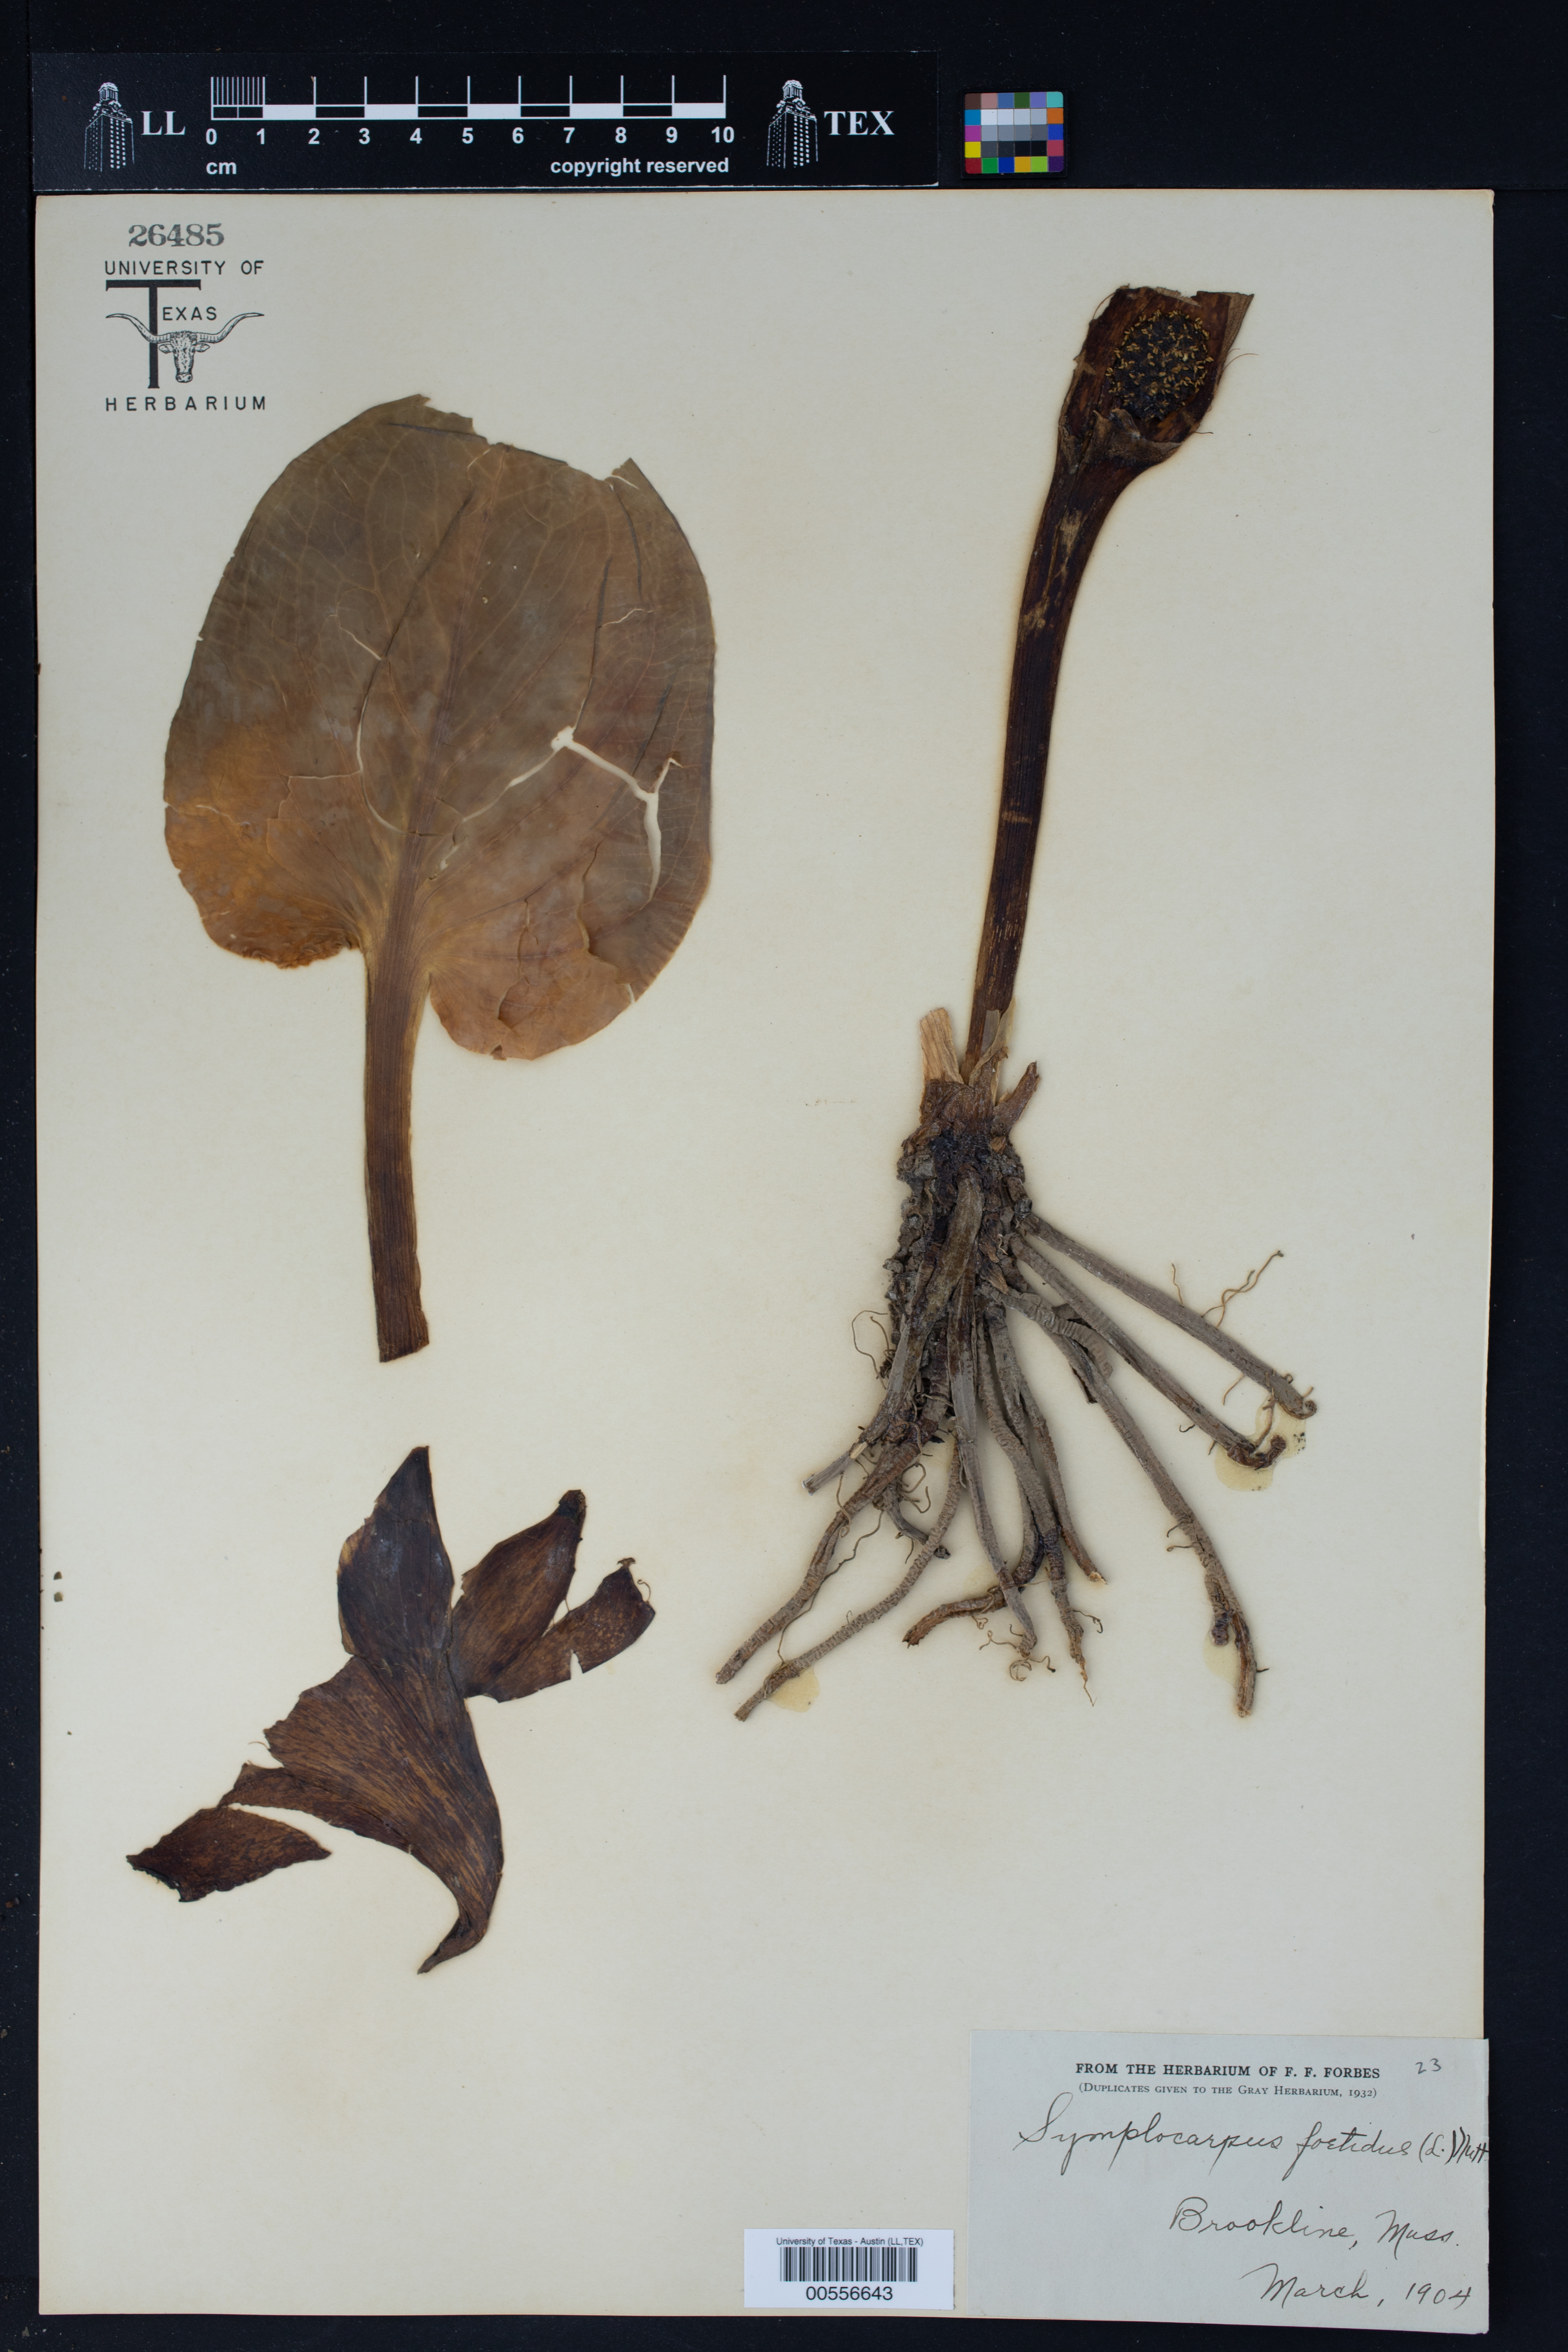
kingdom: Plantae
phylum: Tracheophyta
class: Liliopsida
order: Alismatales
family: Araceae
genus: Symplocarpus
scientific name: Symplocarpus foetidus
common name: Eastern skunk cabbage
